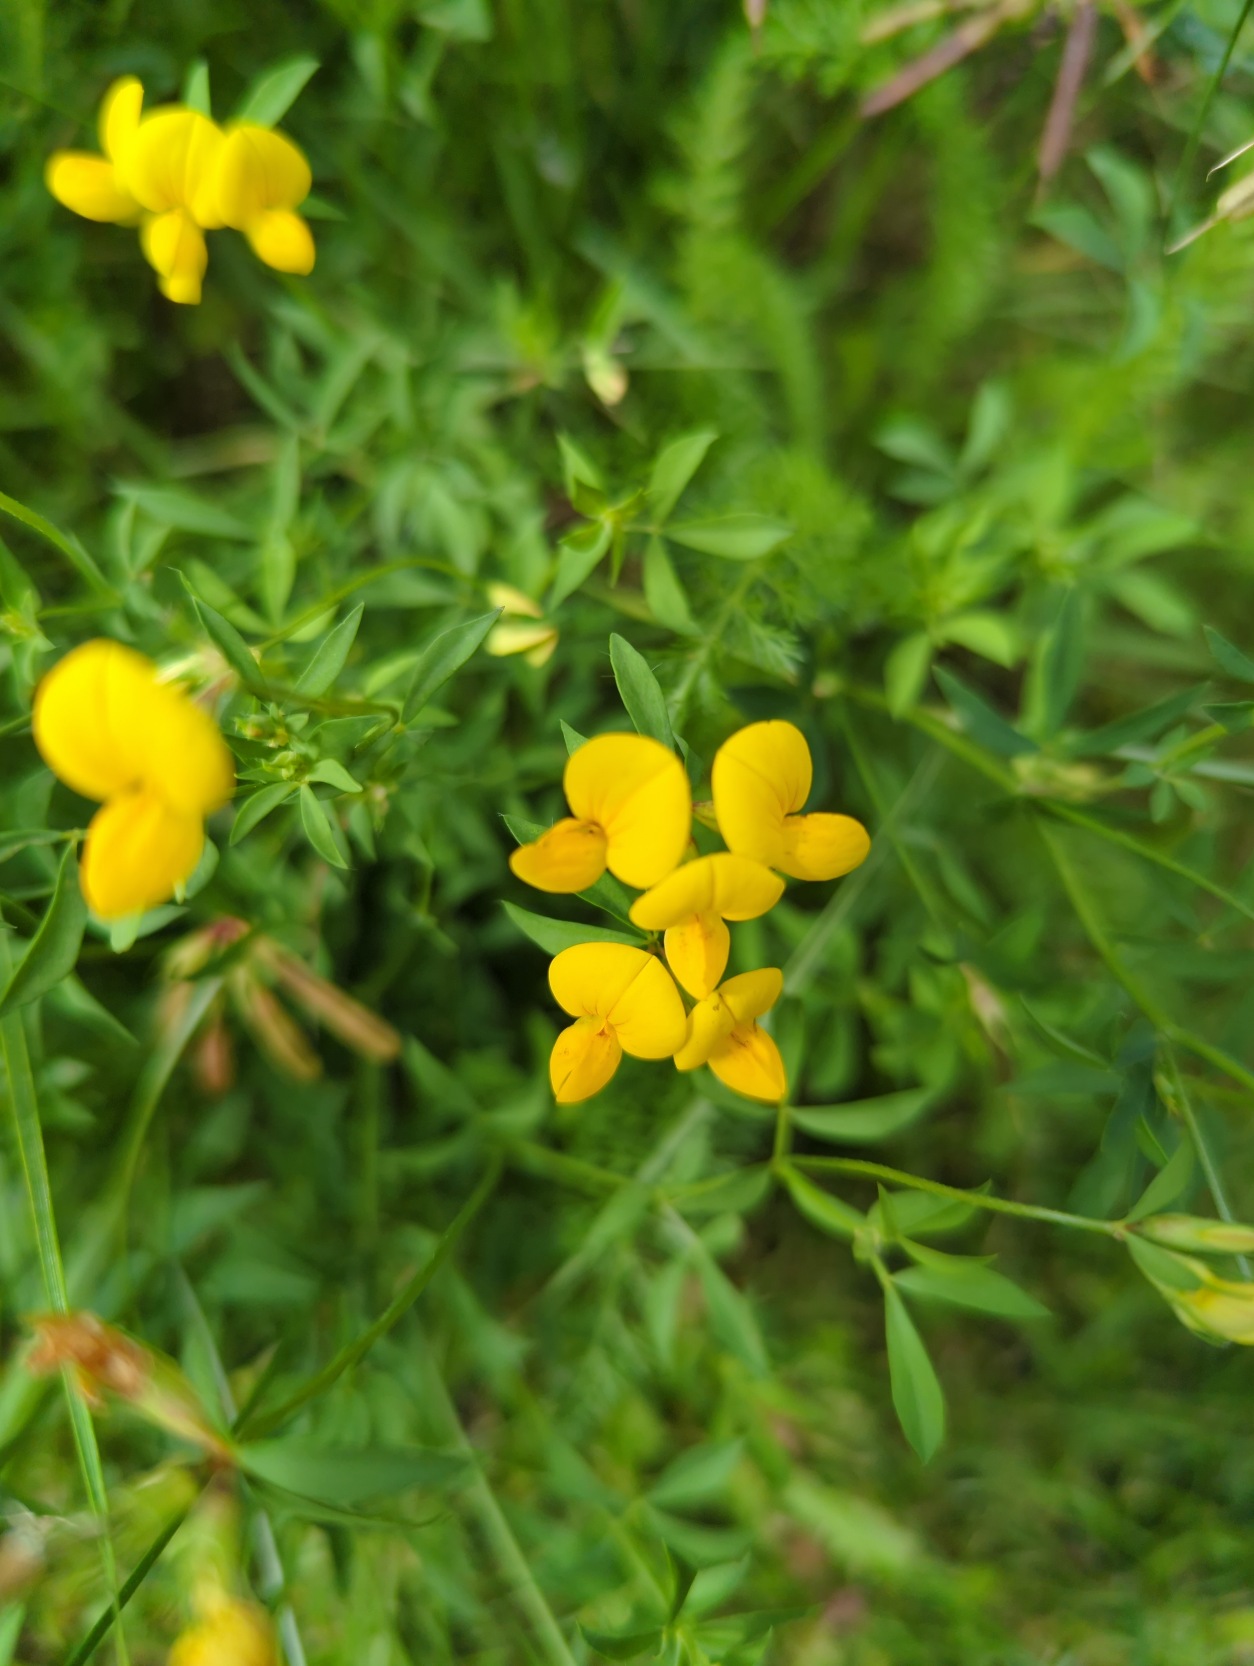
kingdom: Plantae
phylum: Tracheophyta
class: Magnoliopsida
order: Fabales
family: Fabaceae
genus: Lotus
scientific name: Lotus corniculatus
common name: Almindelig kællingetand
